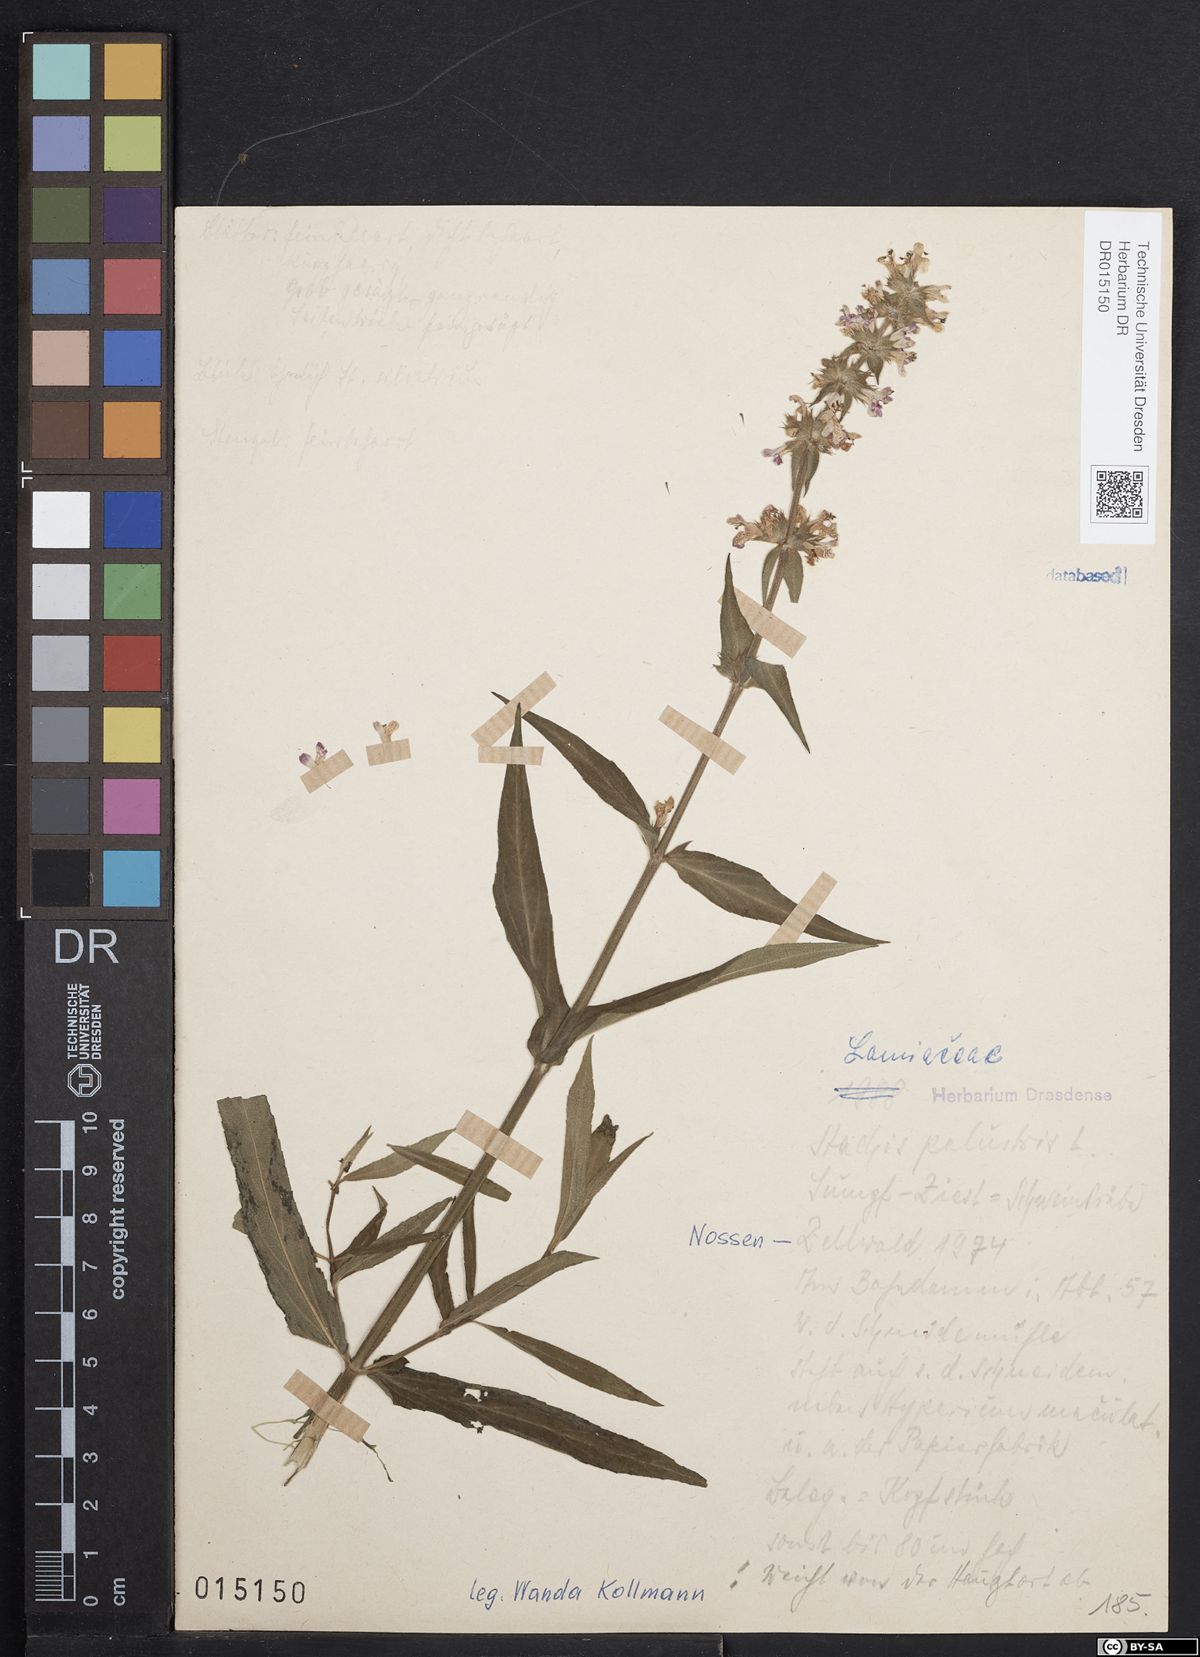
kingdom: Plantae
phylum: Tracheophyta
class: Magnoliopsida
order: Lamiales
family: Lamiaceae
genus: Stachys
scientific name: Stachys palustris
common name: Marsh woundwort
